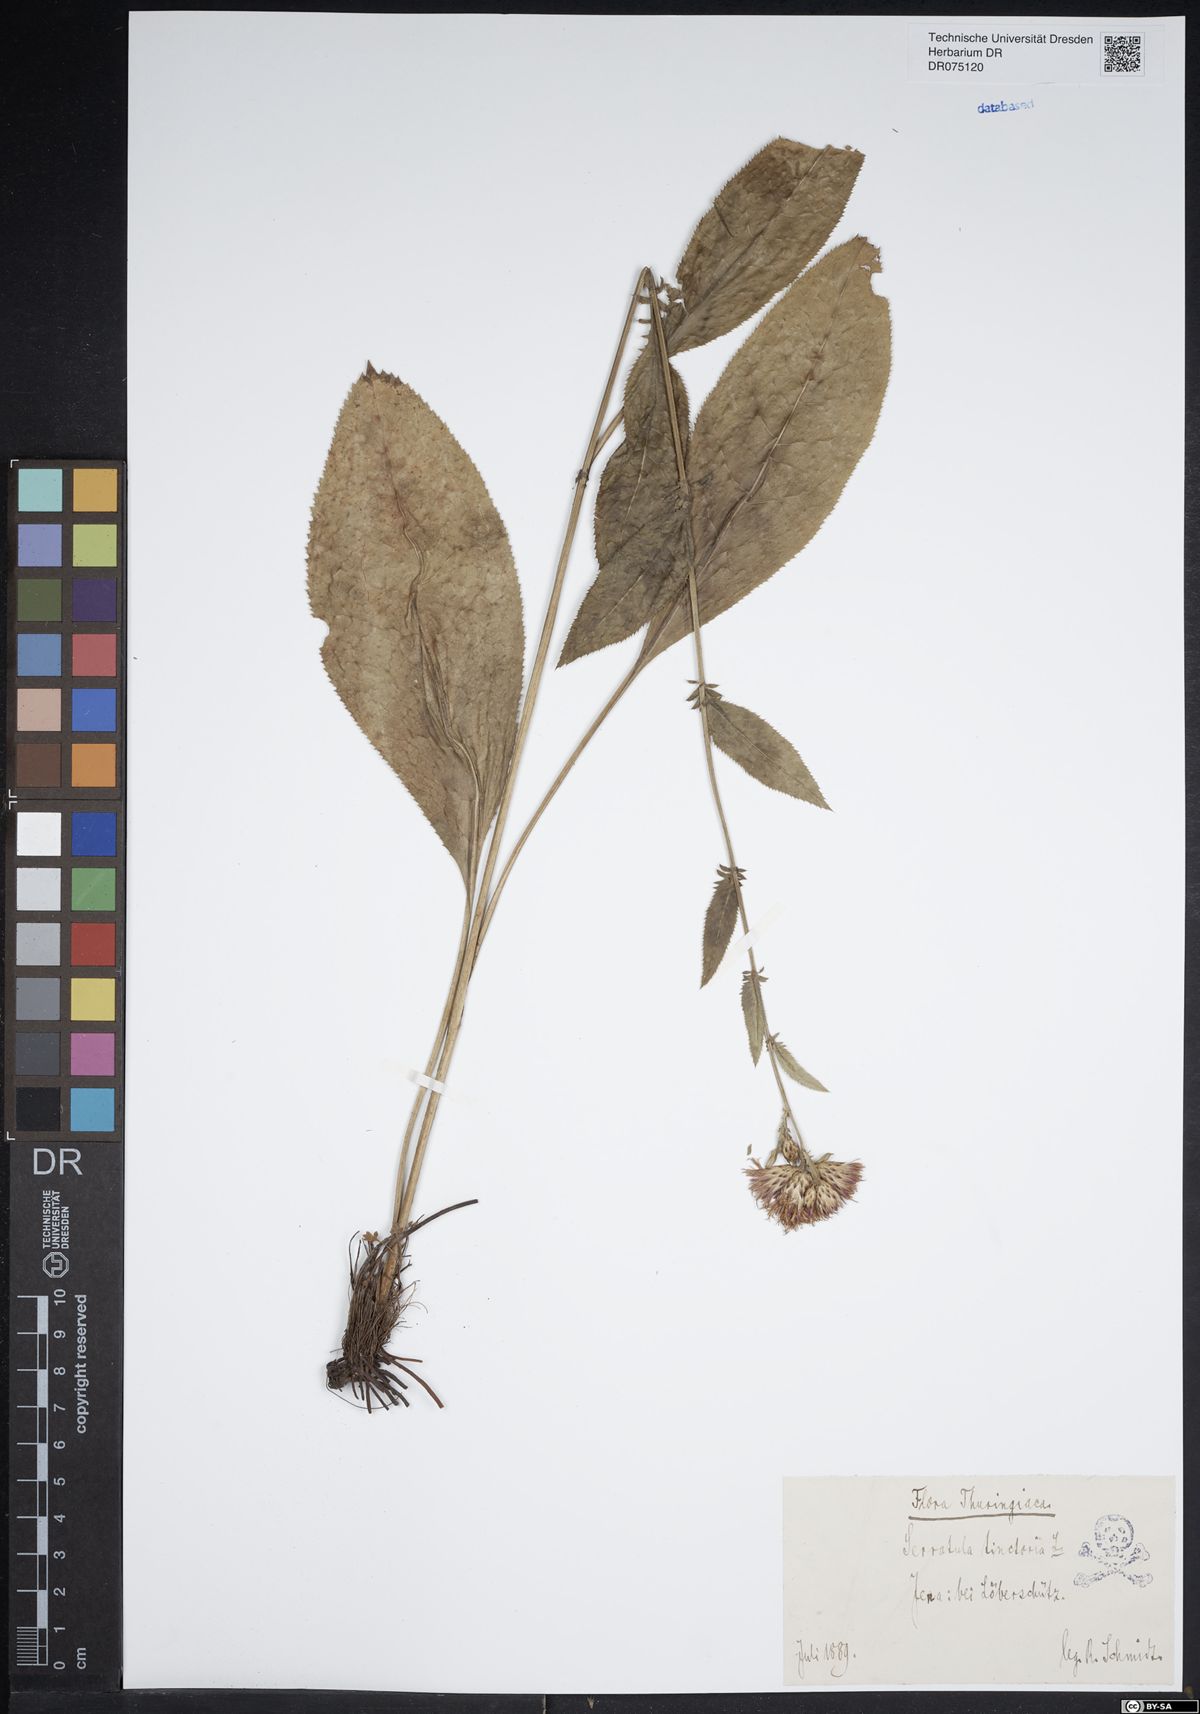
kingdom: Plantae
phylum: Tracheophyta
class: Magnoliopsida
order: Asterales
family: Asteraceae
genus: Serratula
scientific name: Serratula tinctoria
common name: Saw-wort
